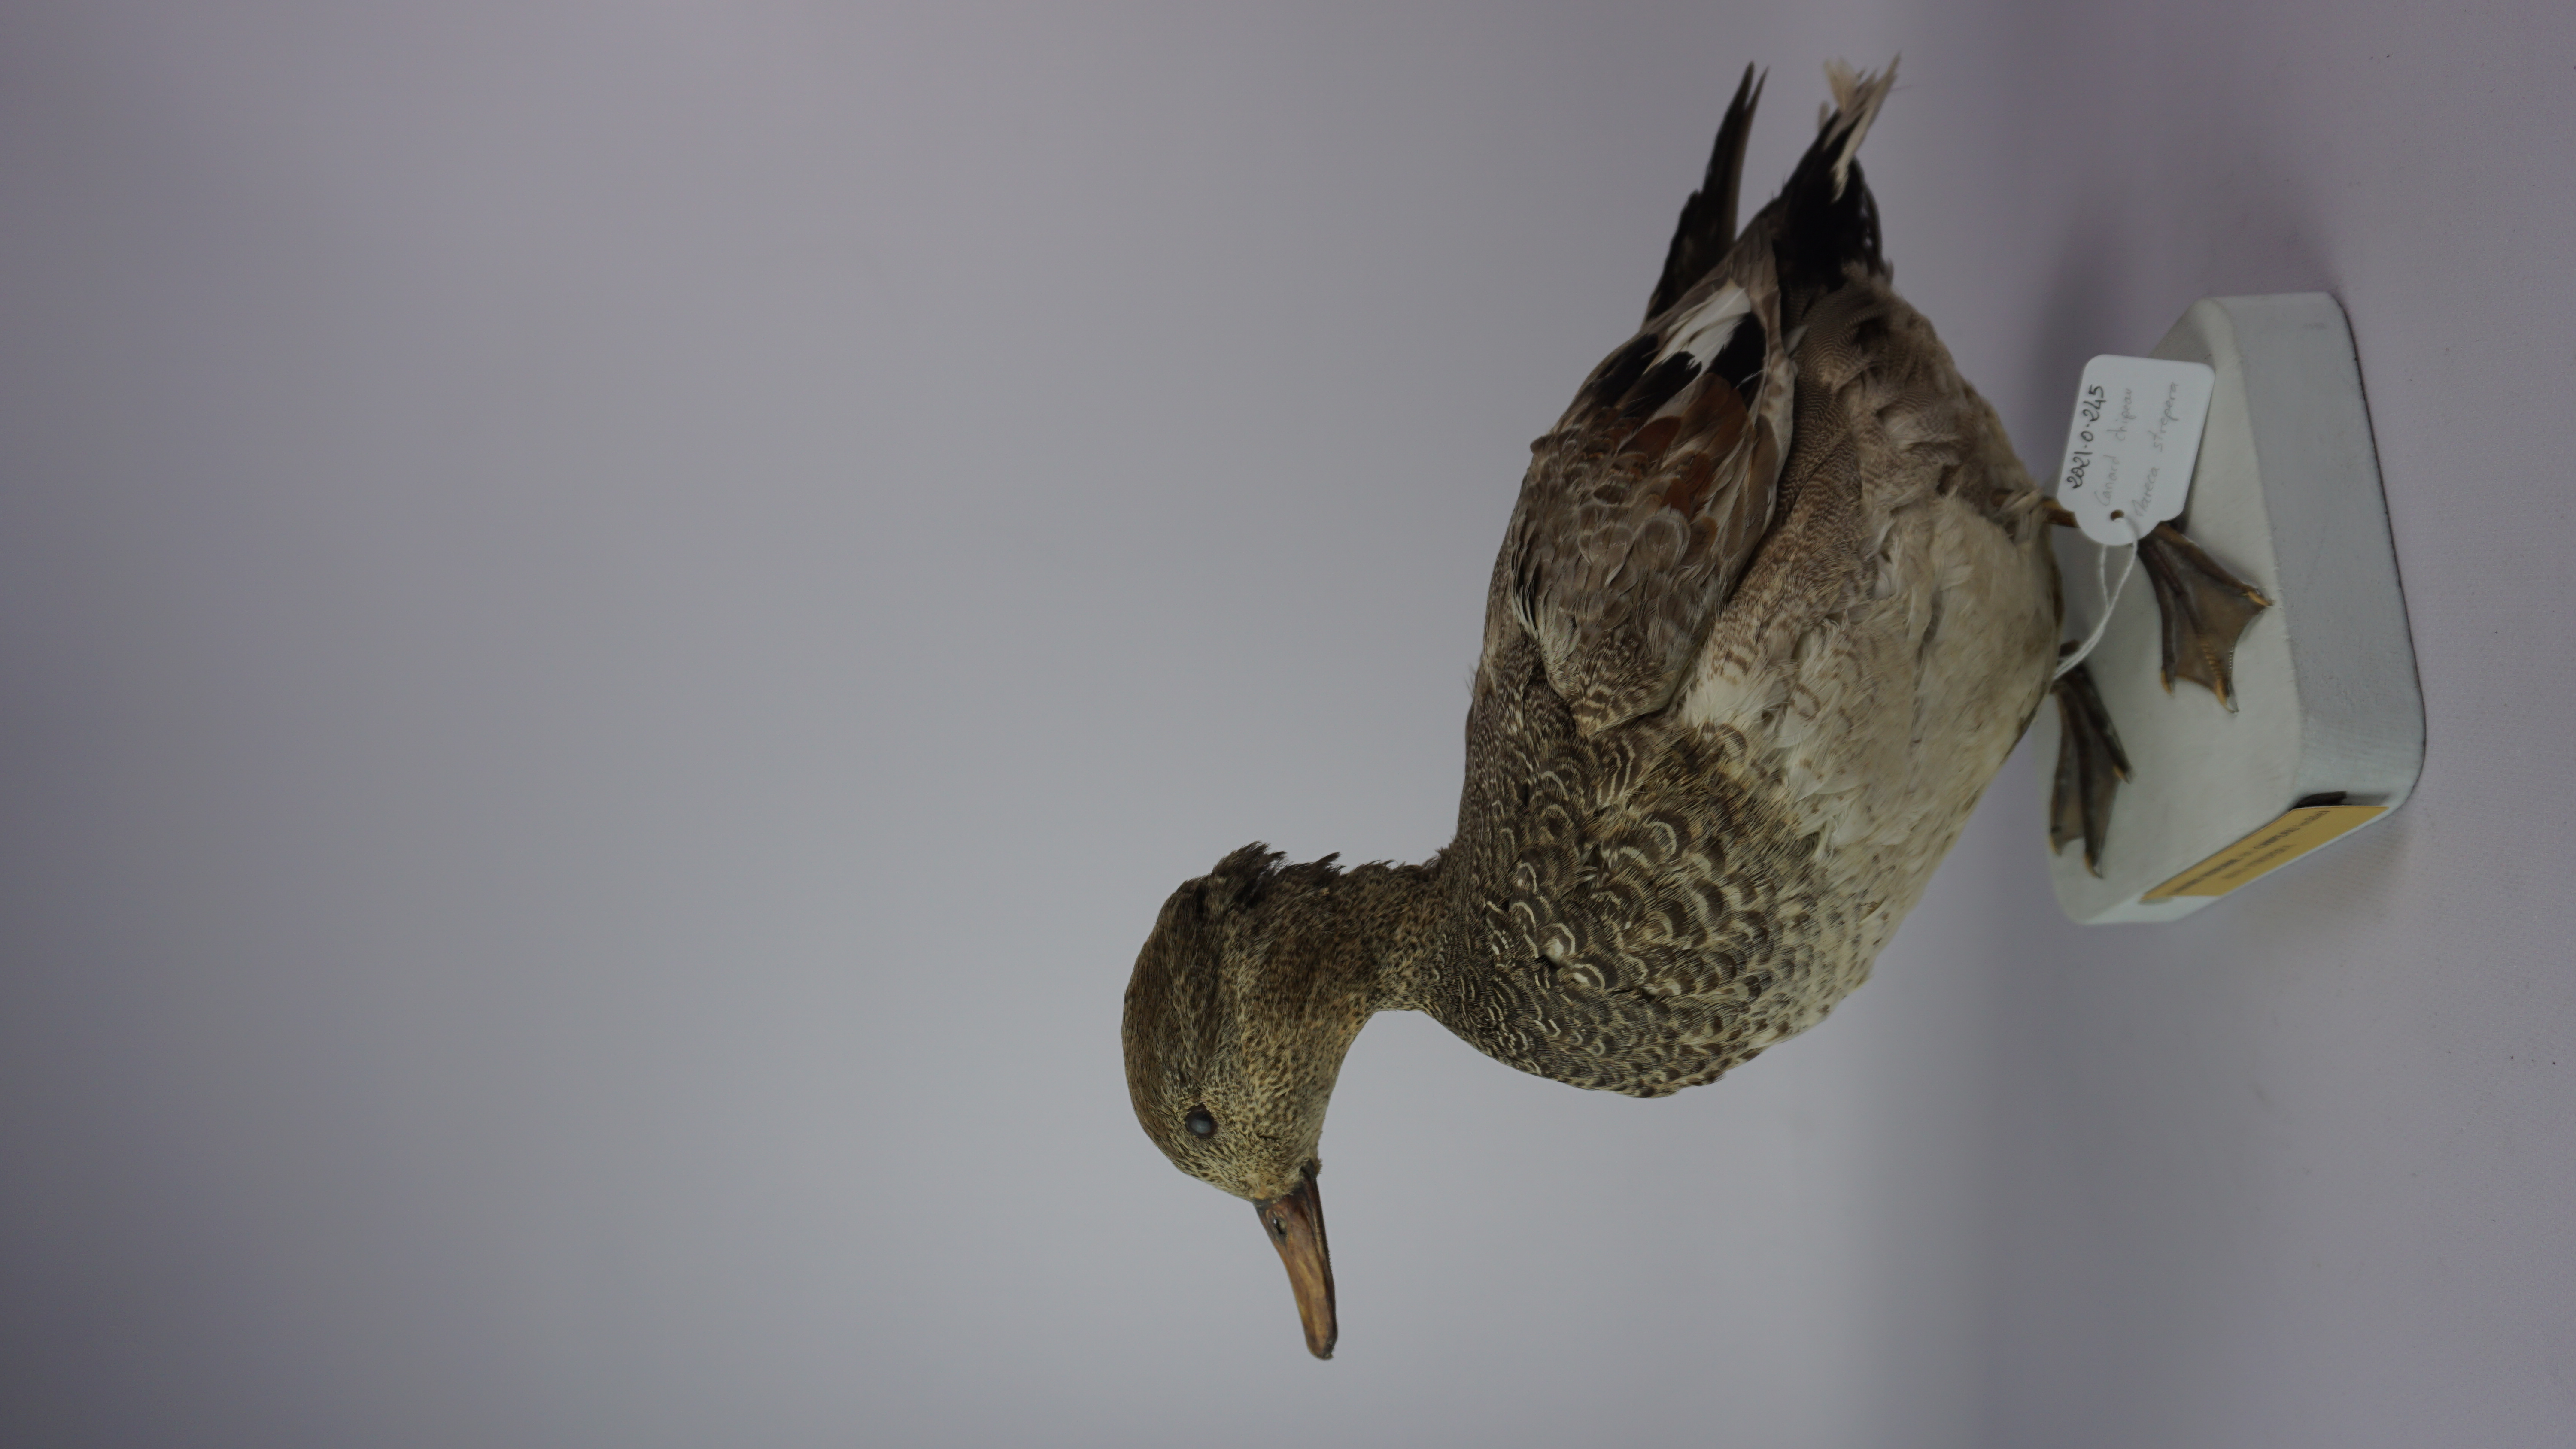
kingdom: Animalia
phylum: Chordata
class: Aves
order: Anseriformes
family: Anatidae
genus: Mareca
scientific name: Mareca strepera
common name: Gadwall
